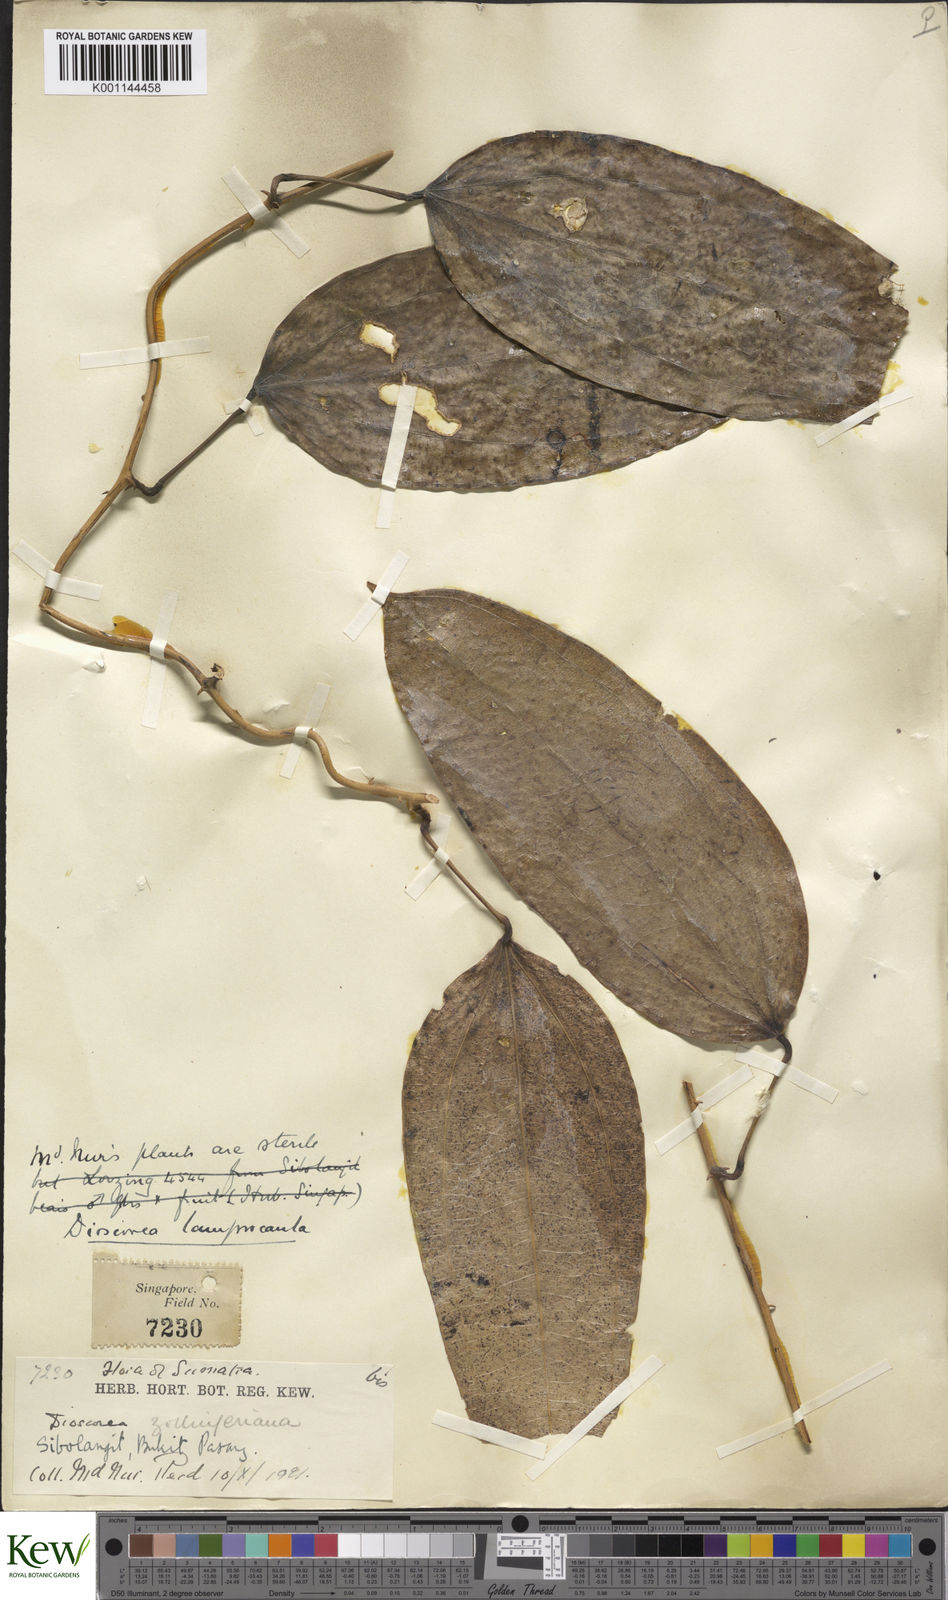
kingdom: Plantae
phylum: Tracheophyta
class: Liliopsida
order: Dioscoreales
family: Dioscoreaceae
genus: Dioscorea
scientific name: Dioscorea lamprocaula
